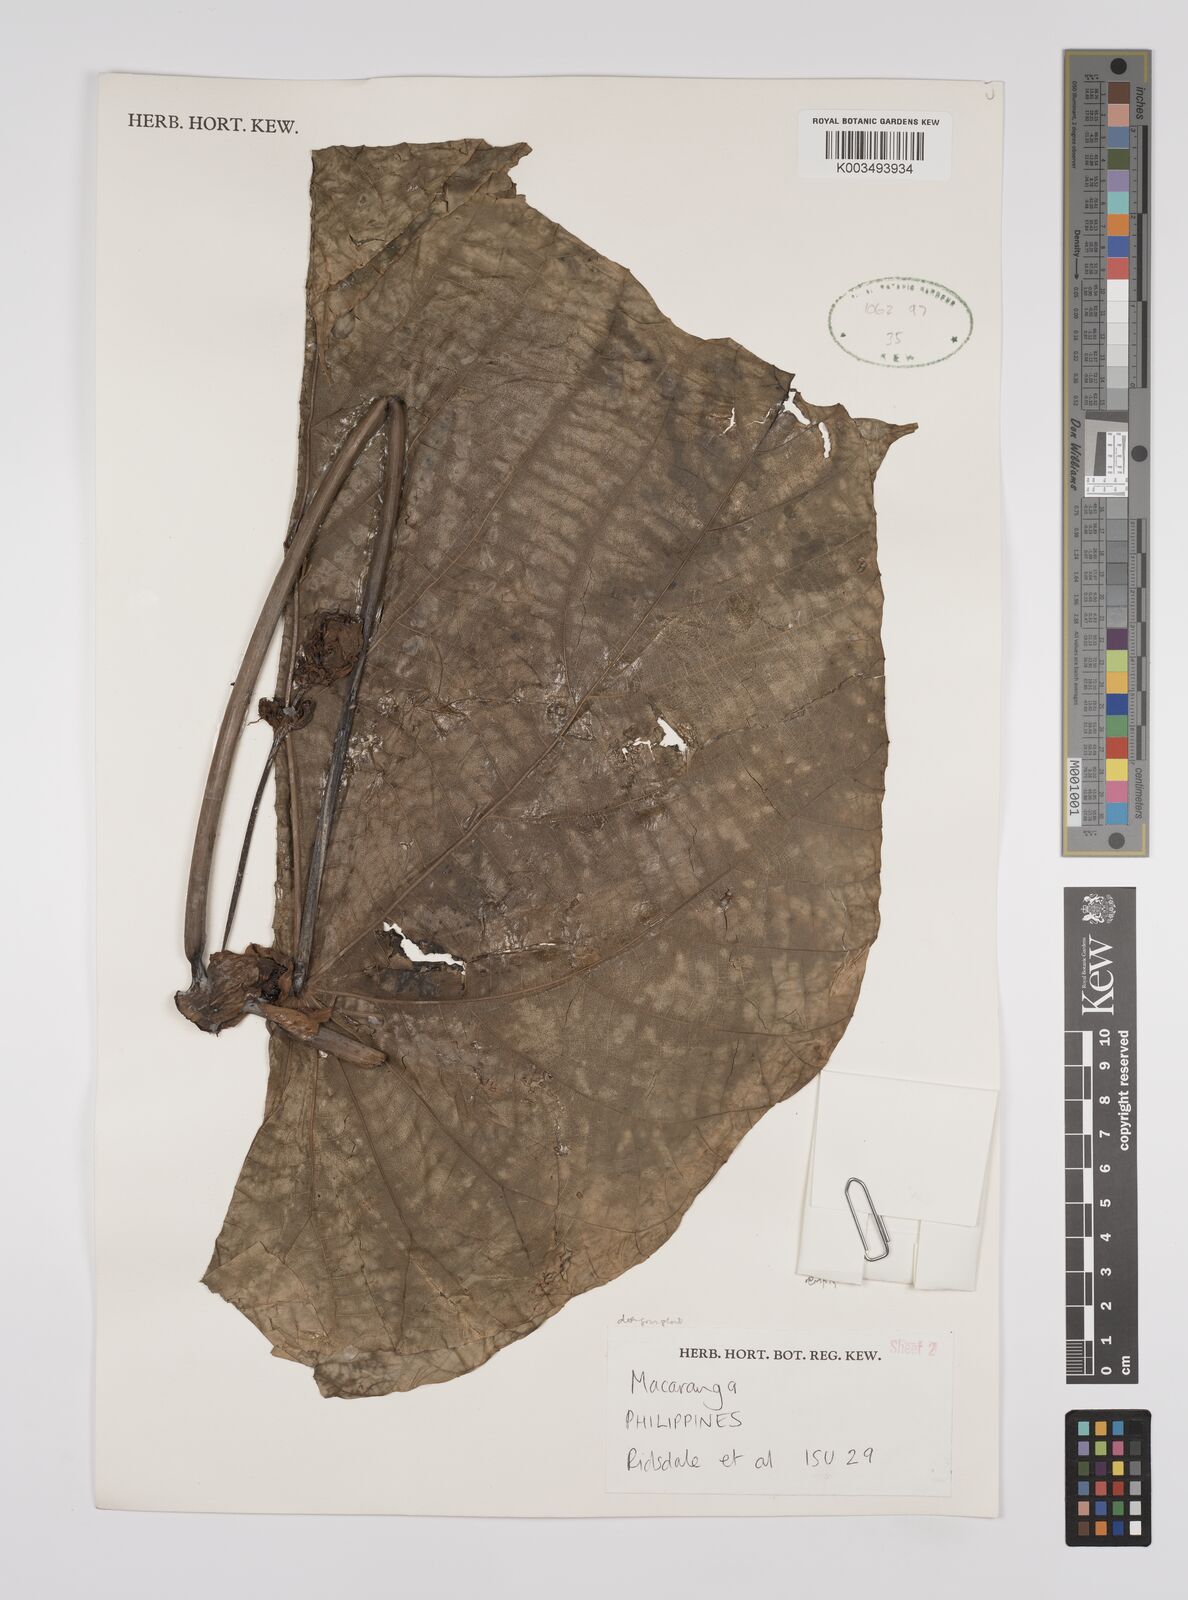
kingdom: Plantae
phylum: Tracheophyta
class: Magnoliopsida
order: Malpighiales
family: Euphorbiaceae
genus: Macaranga
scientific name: Macaranga tanarius
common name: Parasol leaf tree
